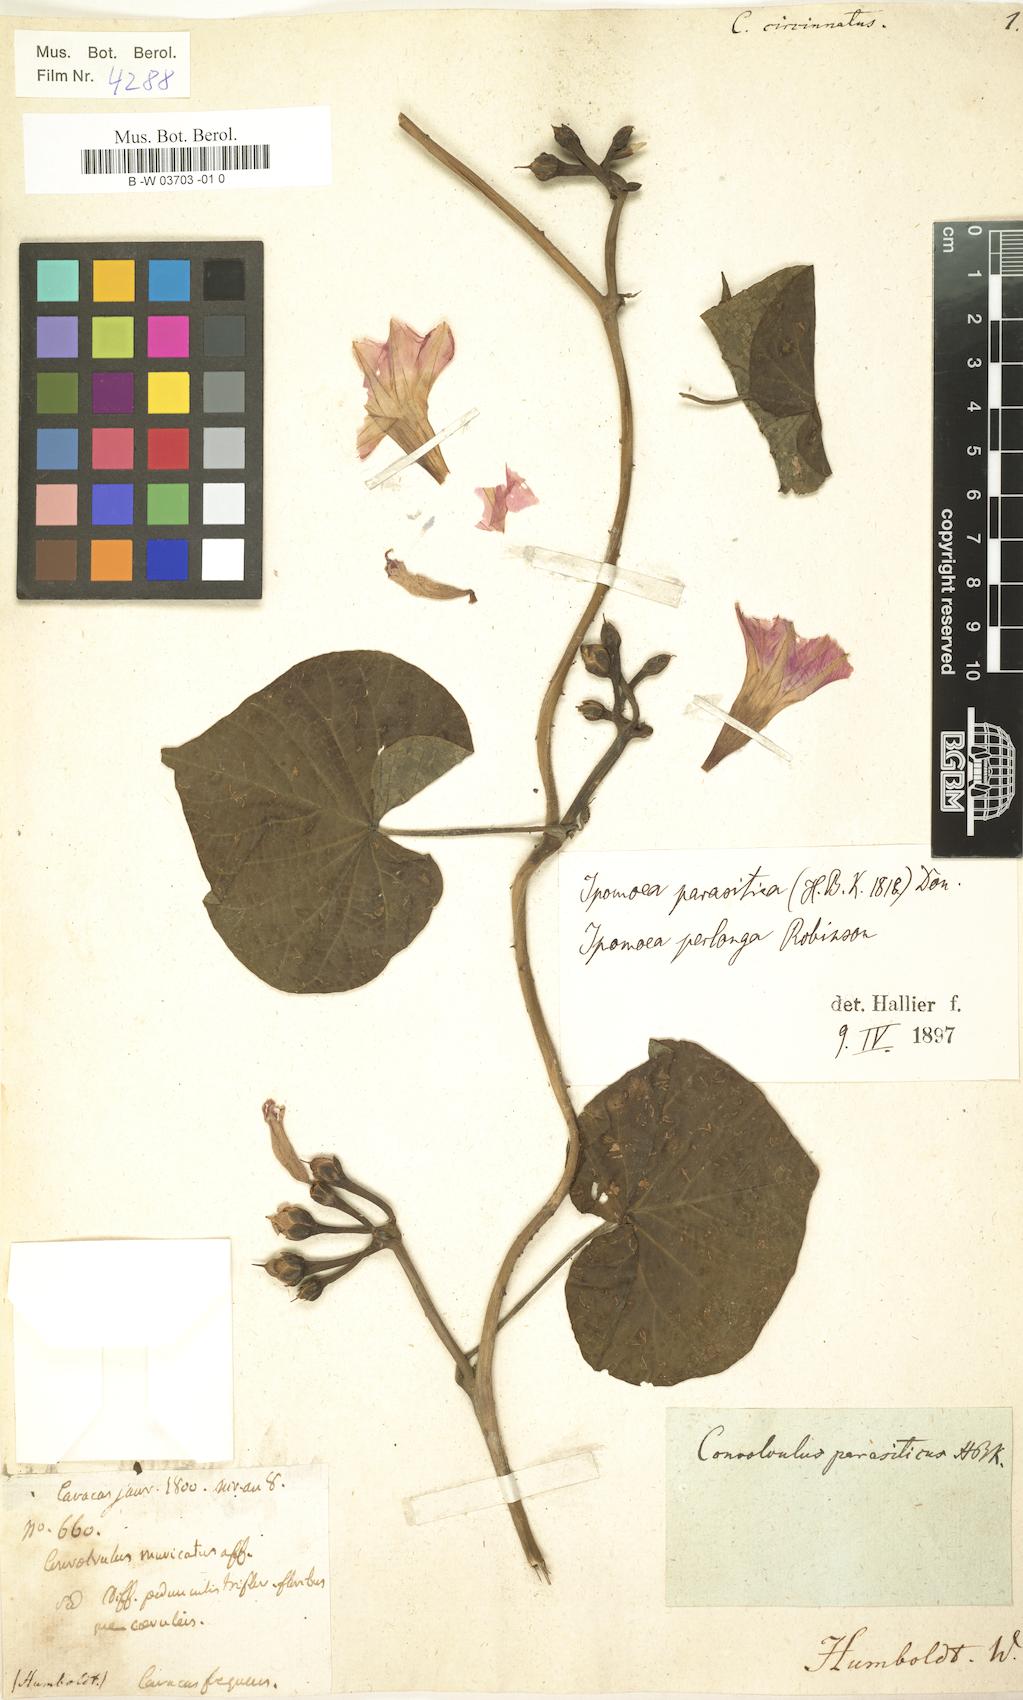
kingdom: Plantae
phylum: Tracheophyta
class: Magnoliopsida
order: Solanales
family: Convolvulaceae
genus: Ipomoea
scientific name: Ipomoea parasitica
